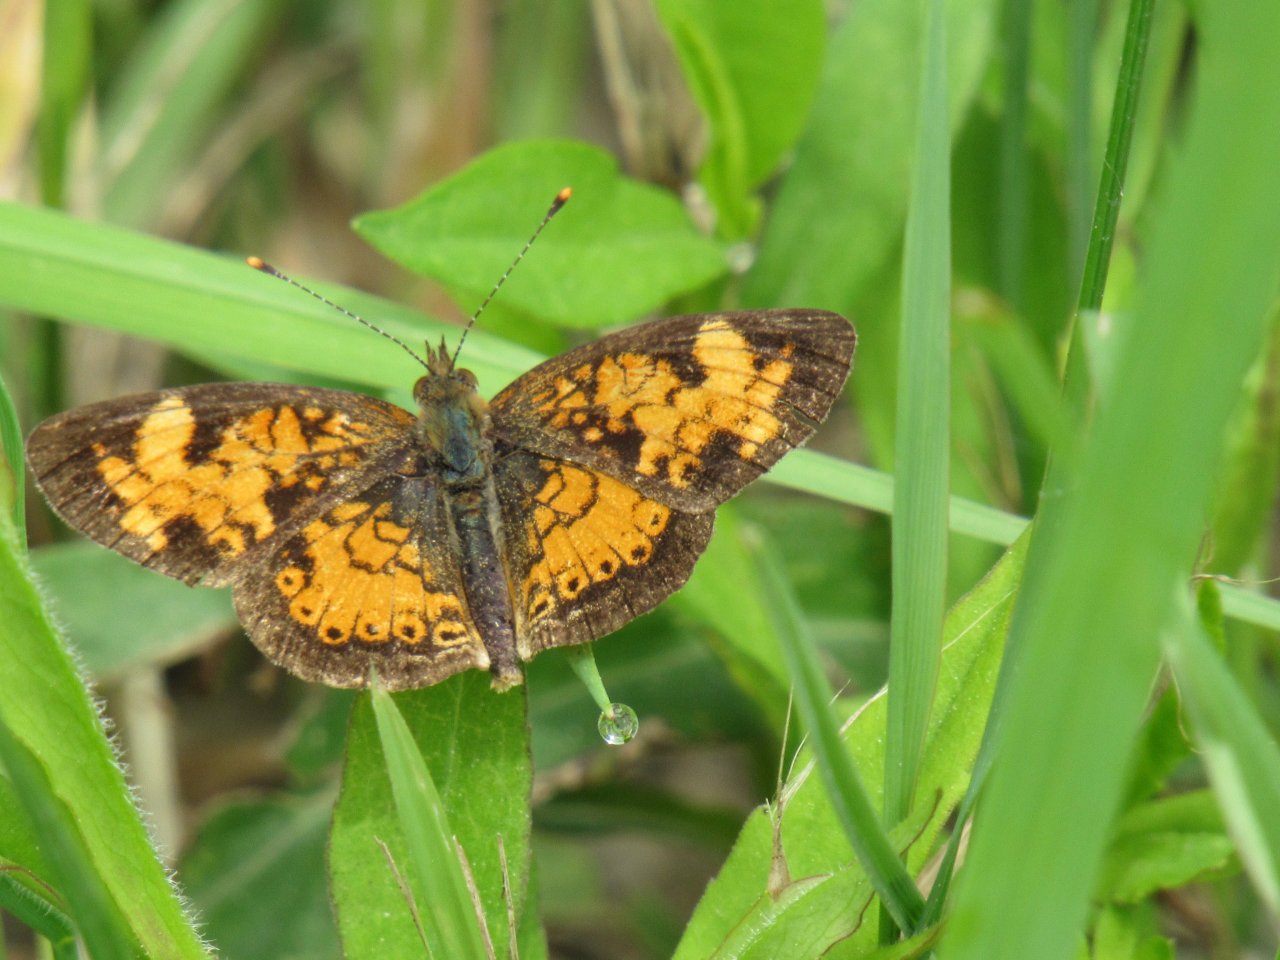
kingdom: Animalia
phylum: Arthropoda
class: Insecta
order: Lepidoptera
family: Nymphalidae
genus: Phyciodes
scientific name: Phyciodes
